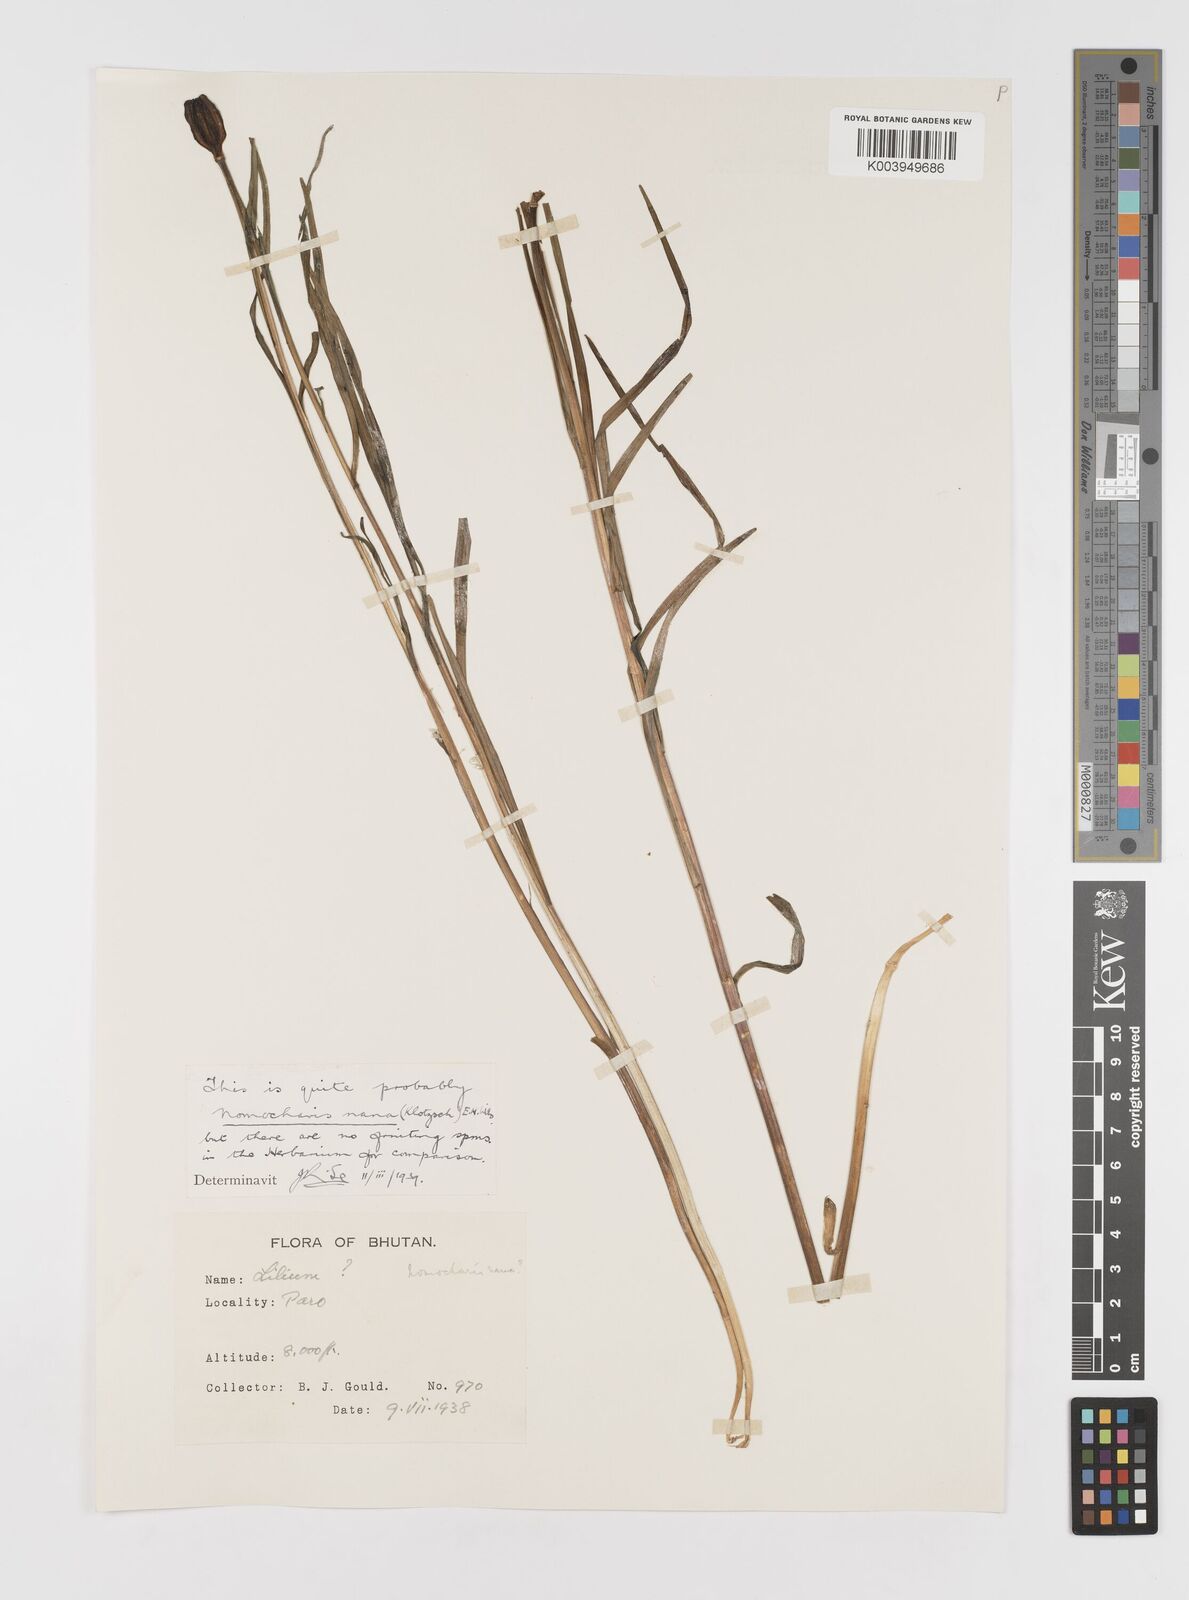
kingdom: Plantae
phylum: Tracheophyta
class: Liliopsida
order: Liliales
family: Liliaceae
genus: Lilium
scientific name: Lilium nanum
